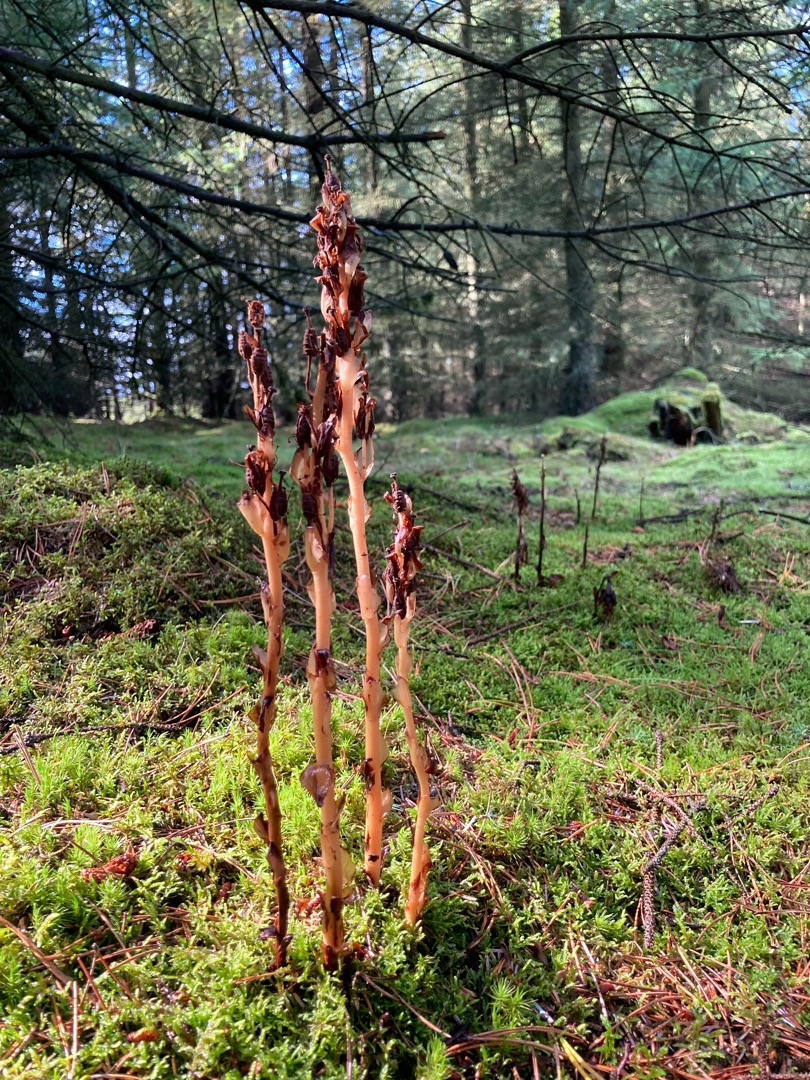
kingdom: Plantae
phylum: Tracheophyta
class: Magnoliopsida
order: Ericales
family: Ericaceae
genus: Hypopitys
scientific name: Hypopitys monotropa
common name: Snylterod
